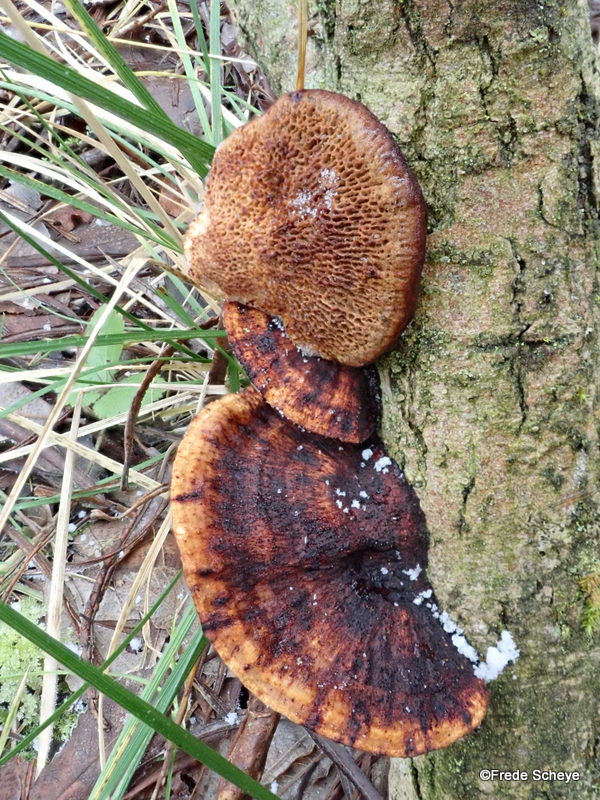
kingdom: Fungi
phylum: Basidiomycota
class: Agaricomycetes
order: Polyporales
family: Polyporaceae
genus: Daedaleopsis
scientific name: Daedaleopsis confragosa
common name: rødmende læderporesvamp
